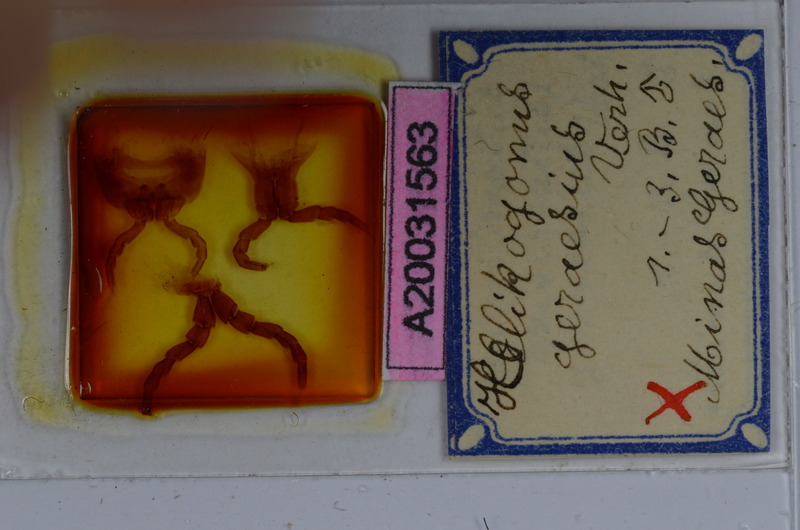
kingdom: Animalia
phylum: Arthropoda
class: Diplopoda
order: Spirostreptida
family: Spirostreptidae
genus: Helicogonus
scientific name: Helicogonus geraesius
